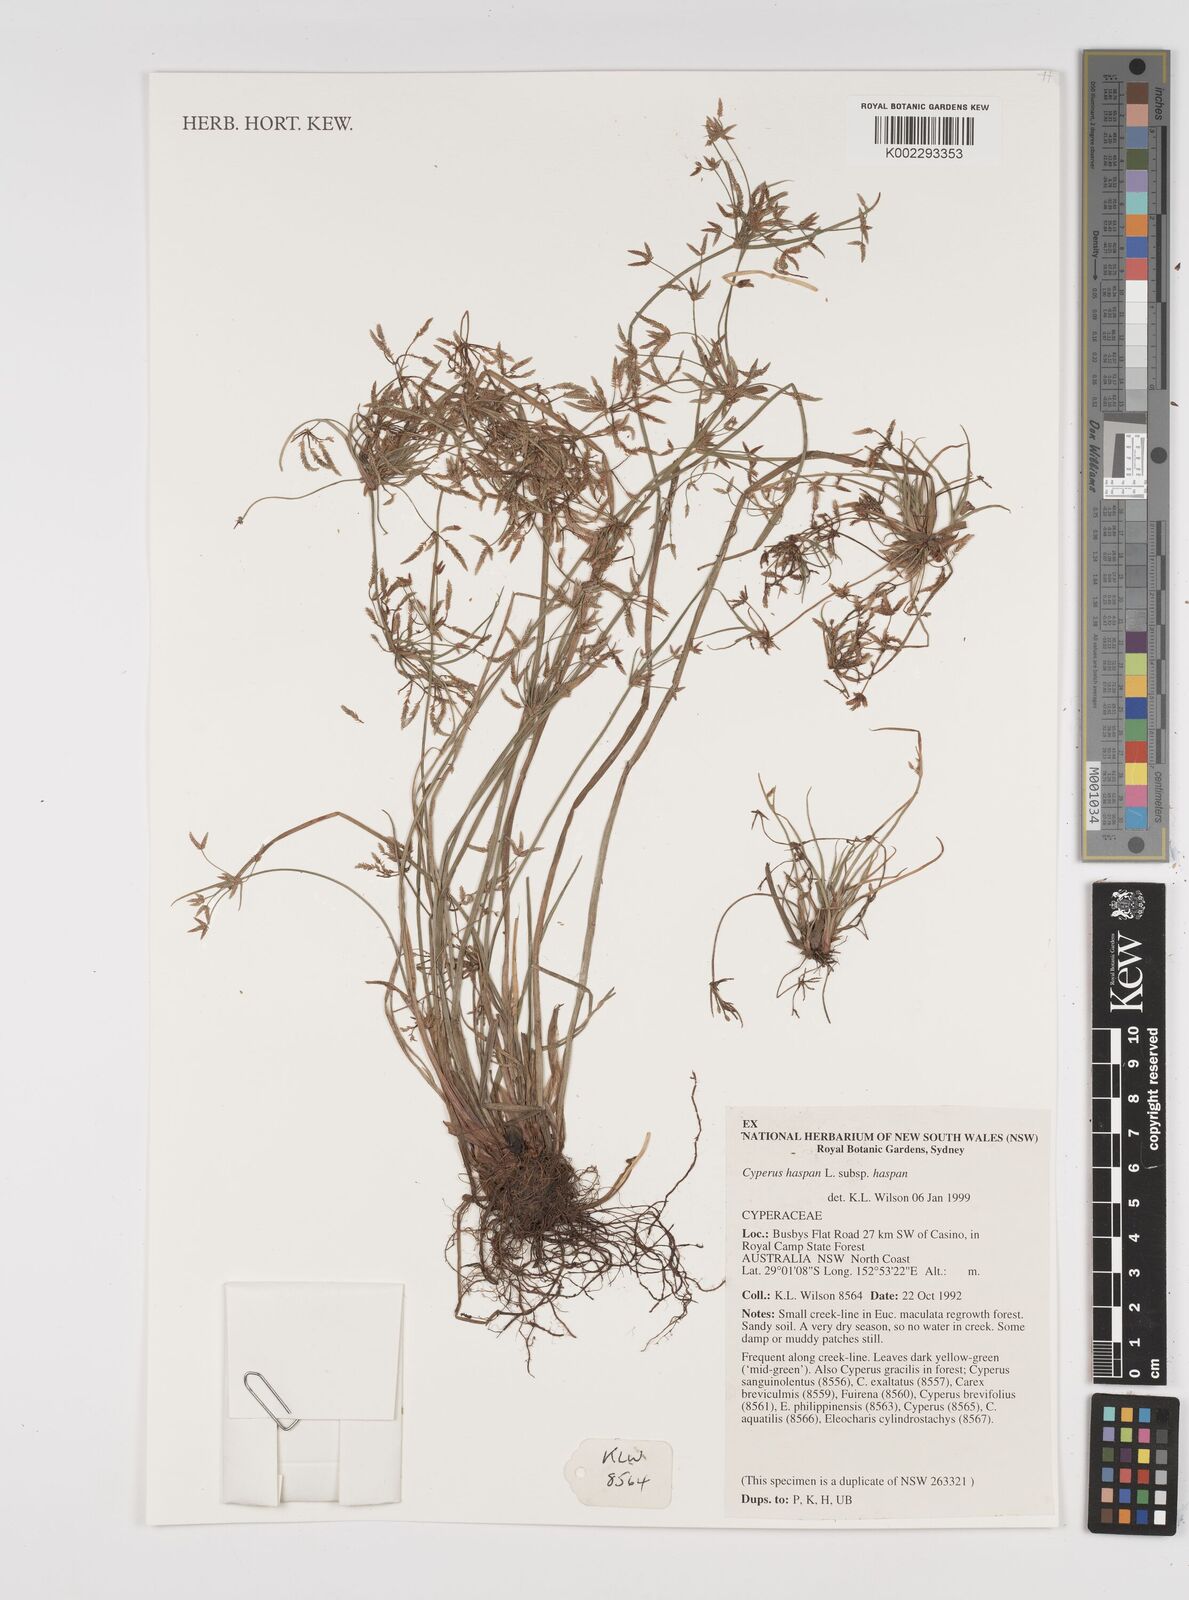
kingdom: Plantae
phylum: Tracheophyta
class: Liliopsida
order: Poales
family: Cyperaceae
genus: Cyperus
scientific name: Cyperus haspan
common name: Haspan flatsedge
